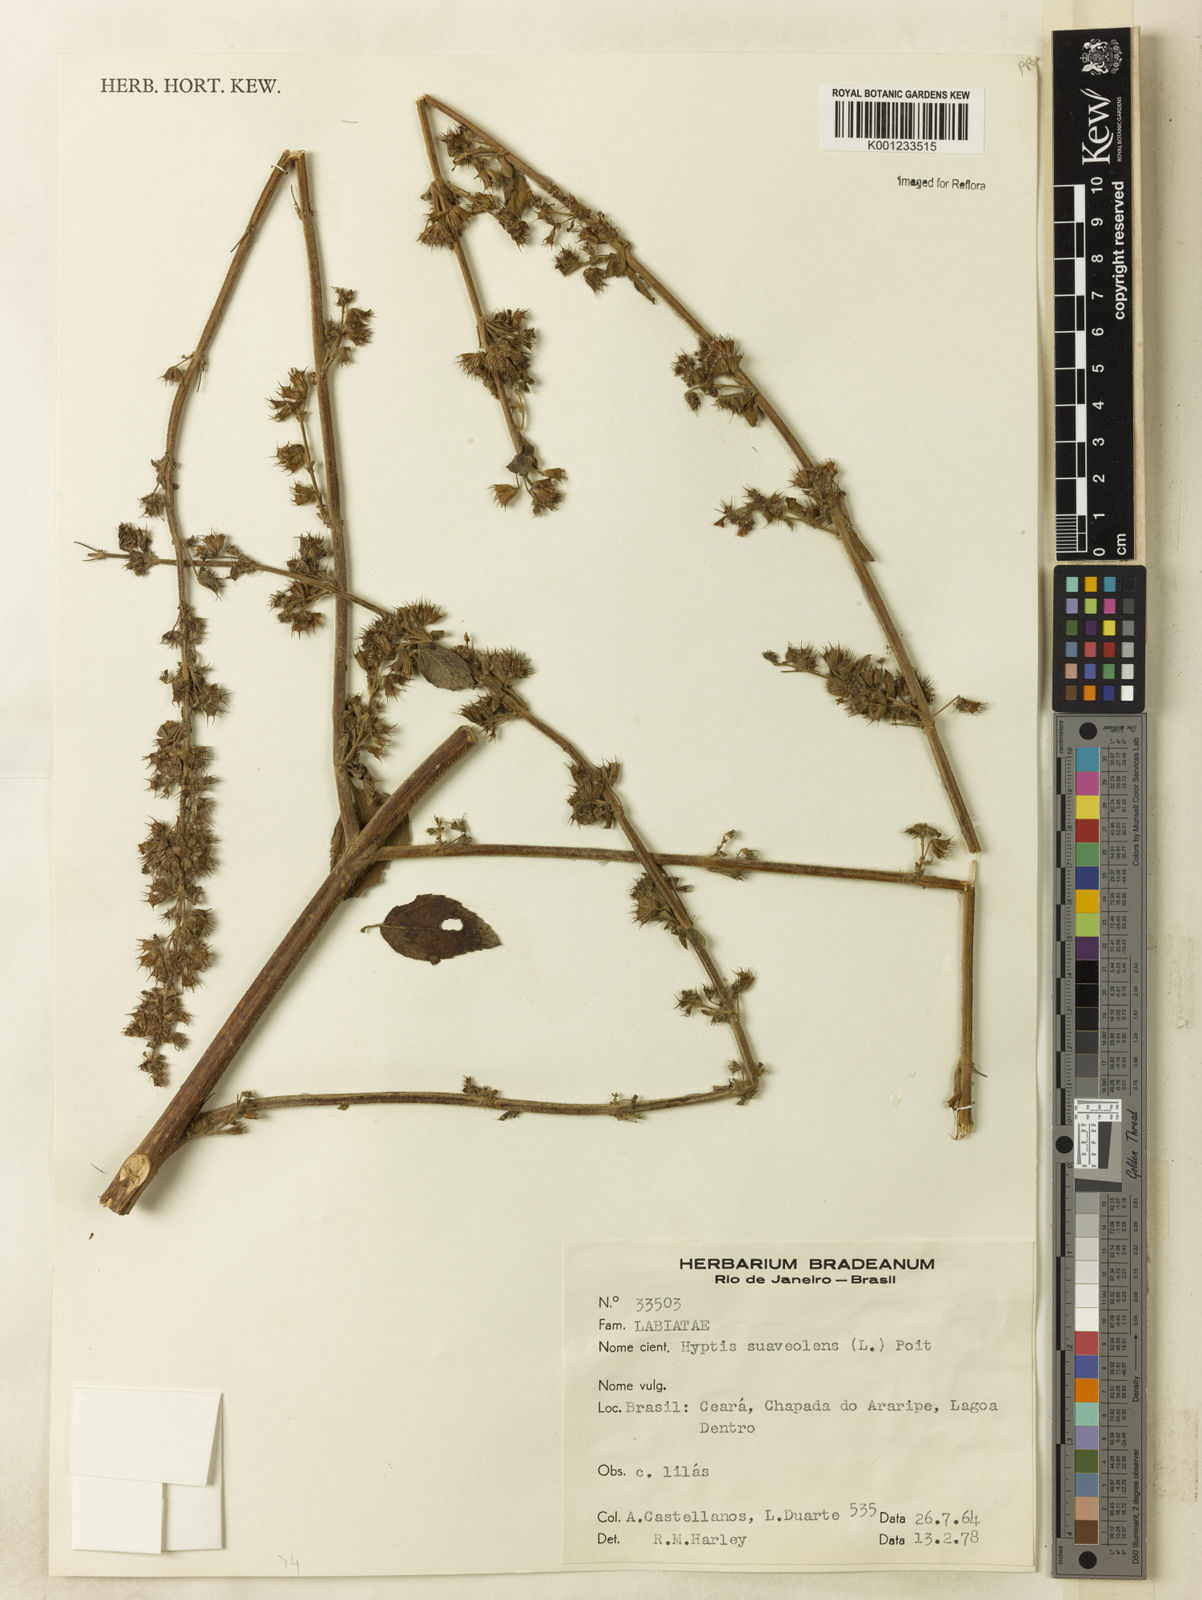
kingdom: Plantae
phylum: Tracheophyta
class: Magnoliopsida
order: Lamiales
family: Lamiaceae
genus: Mesosphaerum
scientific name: Mesosphaerum suaveolens
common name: Pignut
